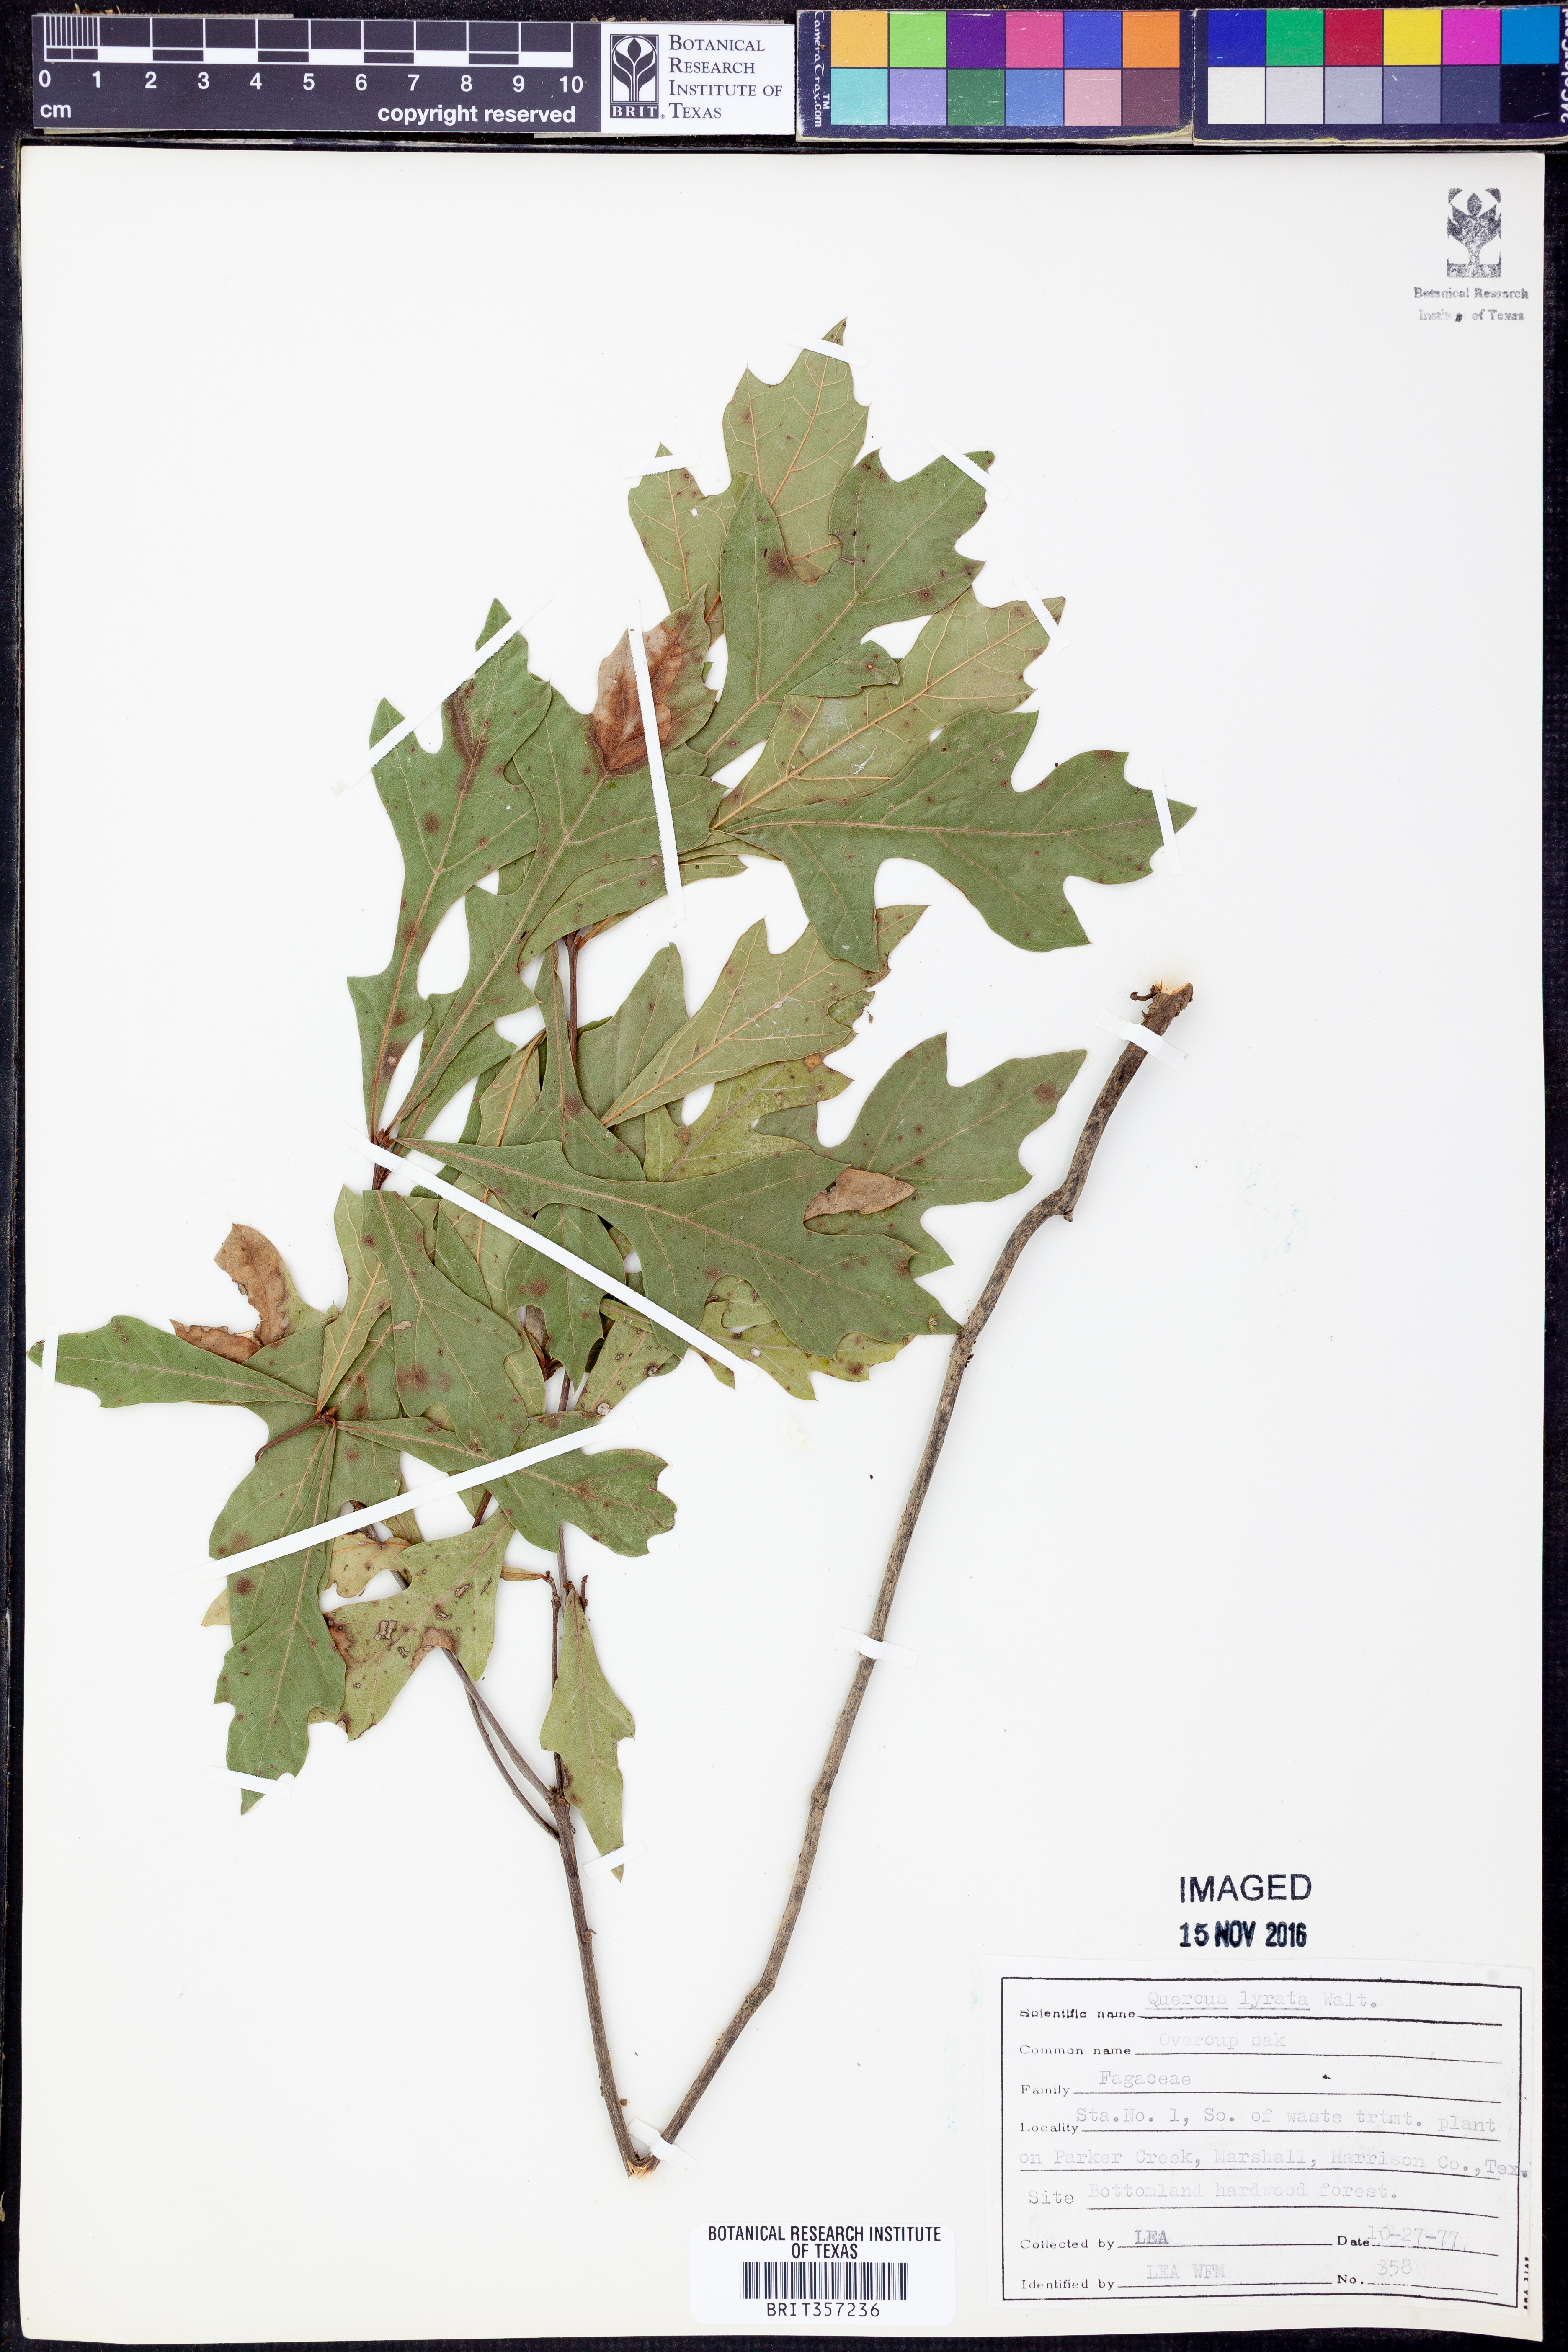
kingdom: Plantae
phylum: Tracheophyta
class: Magnoliopsida
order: Fagales
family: Fagaceae
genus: Quercus
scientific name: Quercus lyrata
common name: Overcup oak
